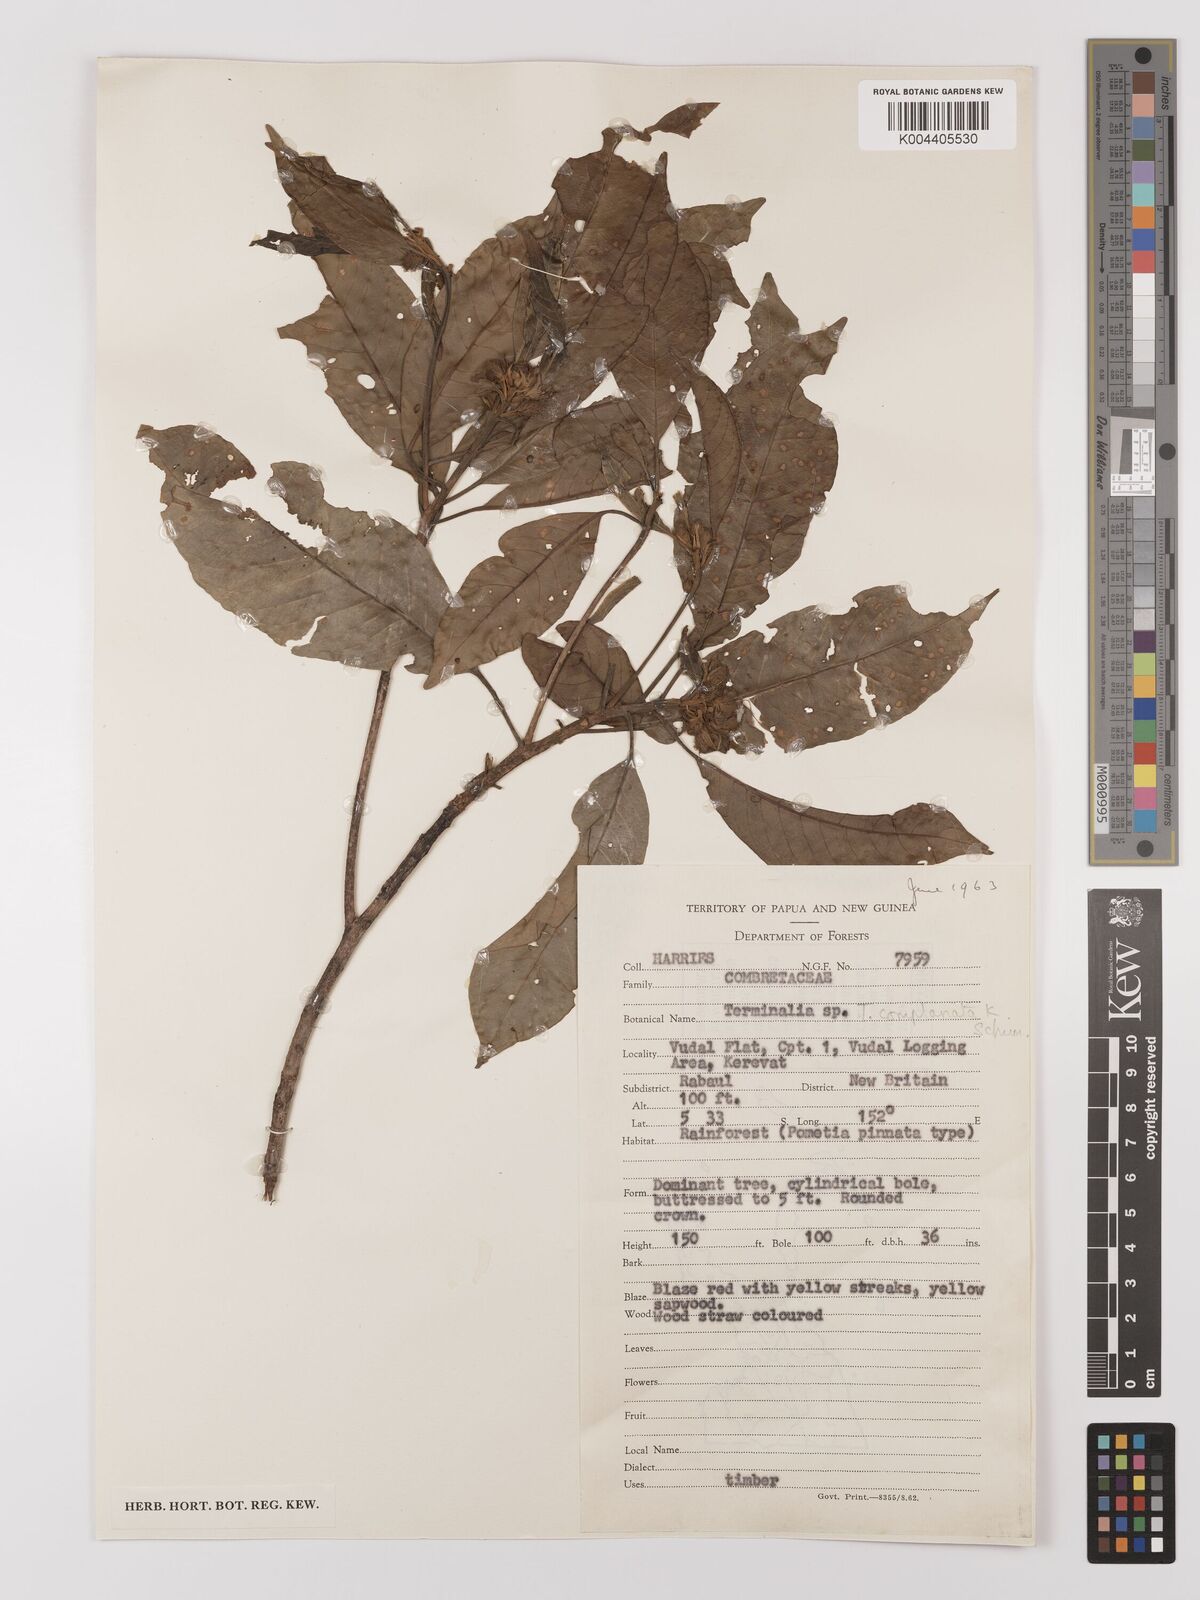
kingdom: Plantae
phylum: Tracheophyta
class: Magnoliopsida
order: Myrtales
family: Combretaceae
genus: Terminalia
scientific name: Terminalia
